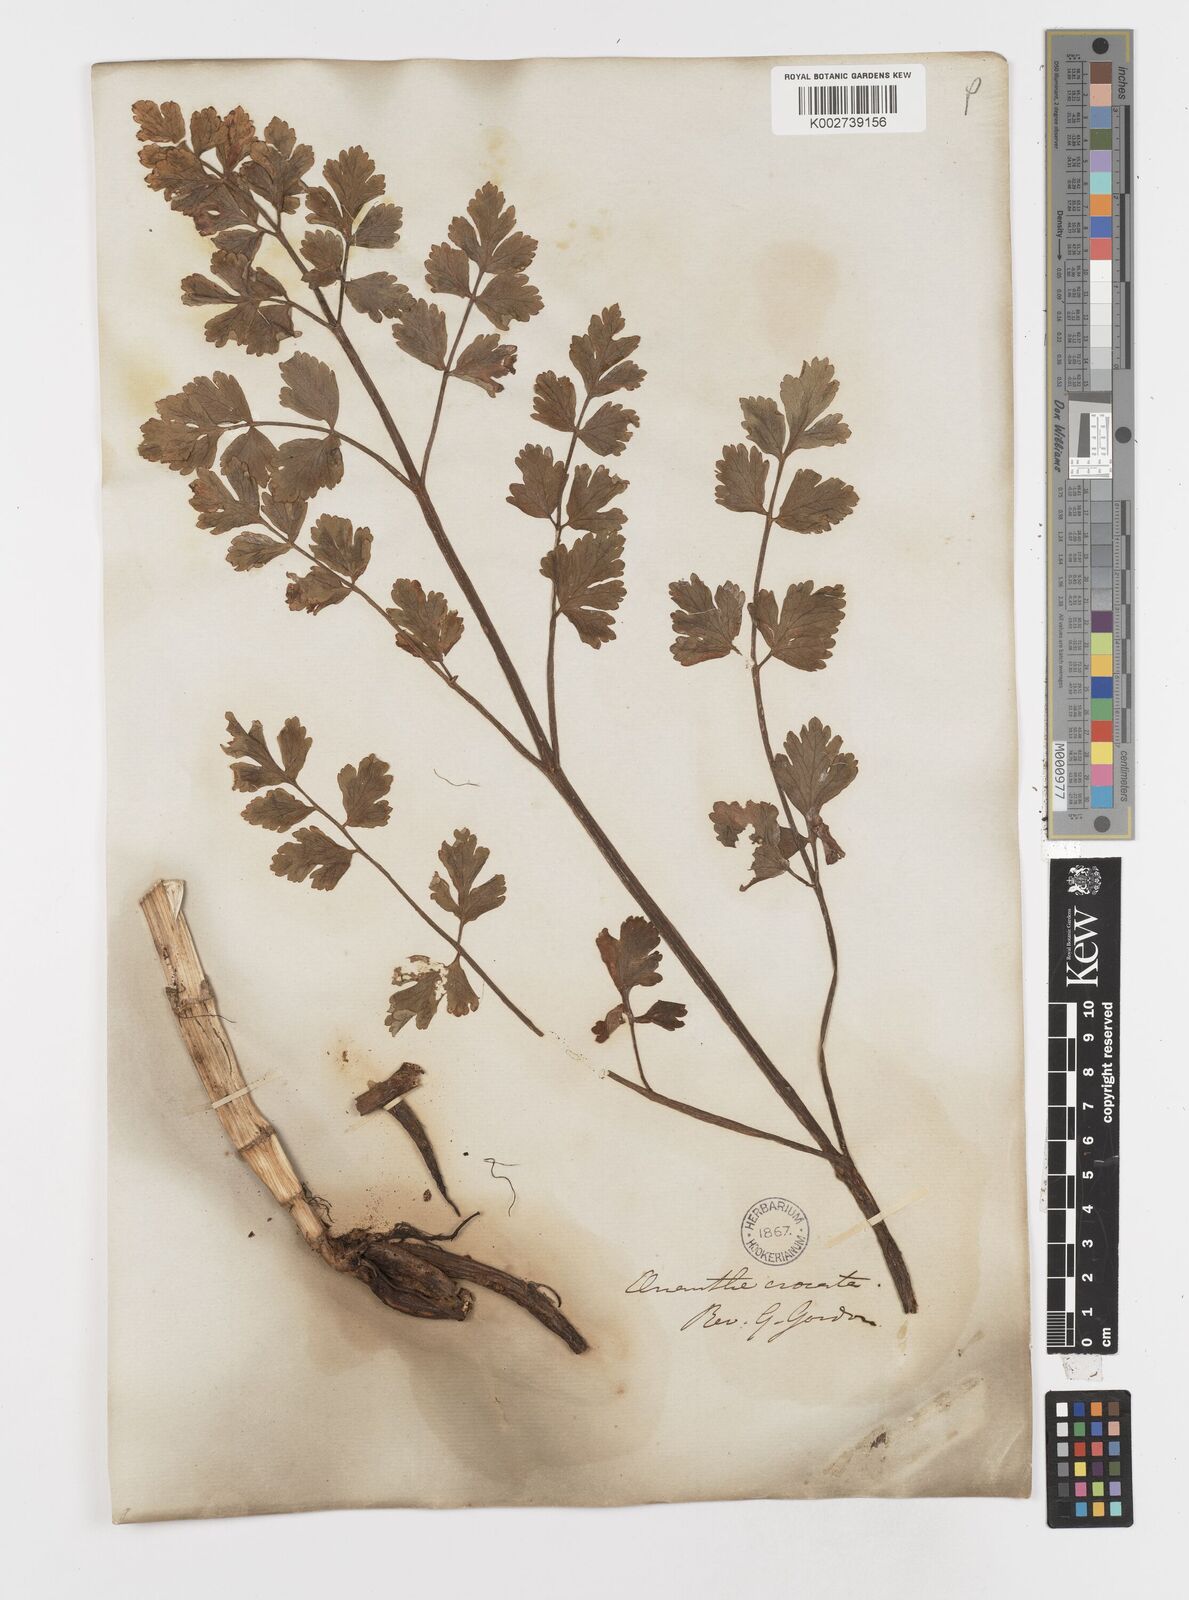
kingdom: Plantae
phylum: Tracheophyta
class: Magnoliopsida
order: Apiales
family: Apiaceae
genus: Oenanthe
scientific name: Oenanthe crocata
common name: Hemlock water-dropwort
